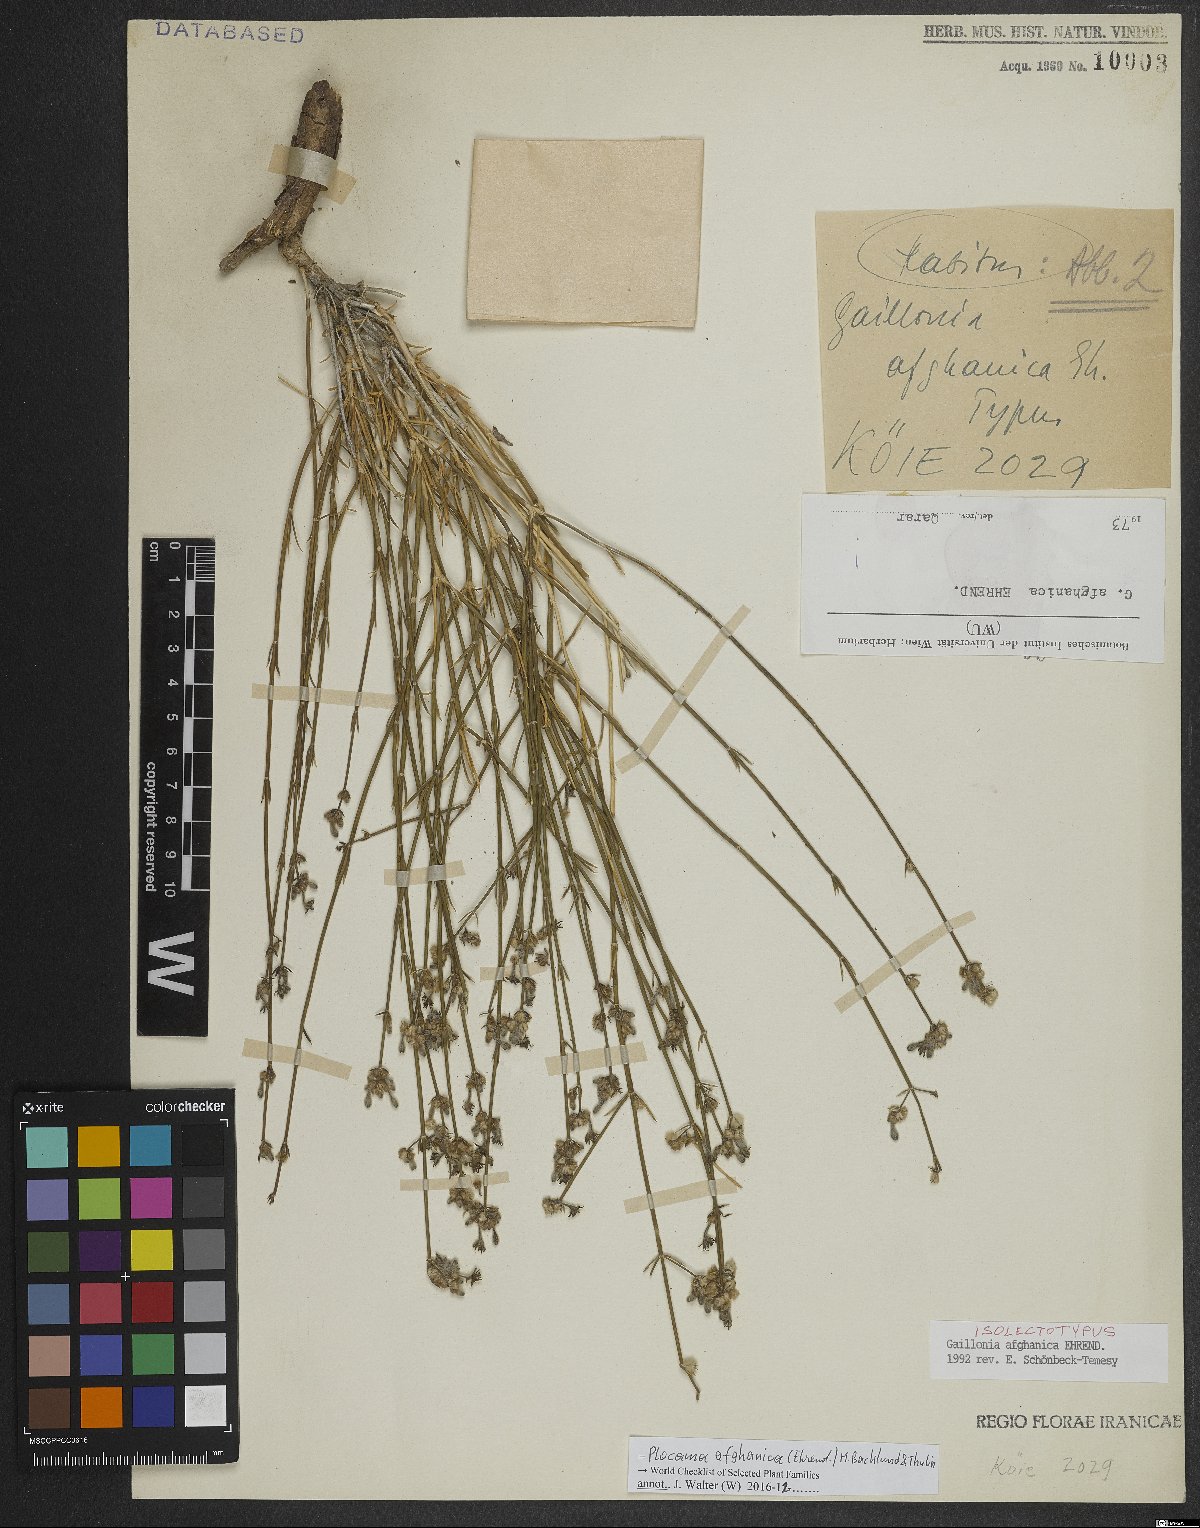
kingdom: Plantae
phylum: Tracheophyta
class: Magnoliopsida
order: Gentianales
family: Rubiaceae
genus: Plocama
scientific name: Plocama afghanica
